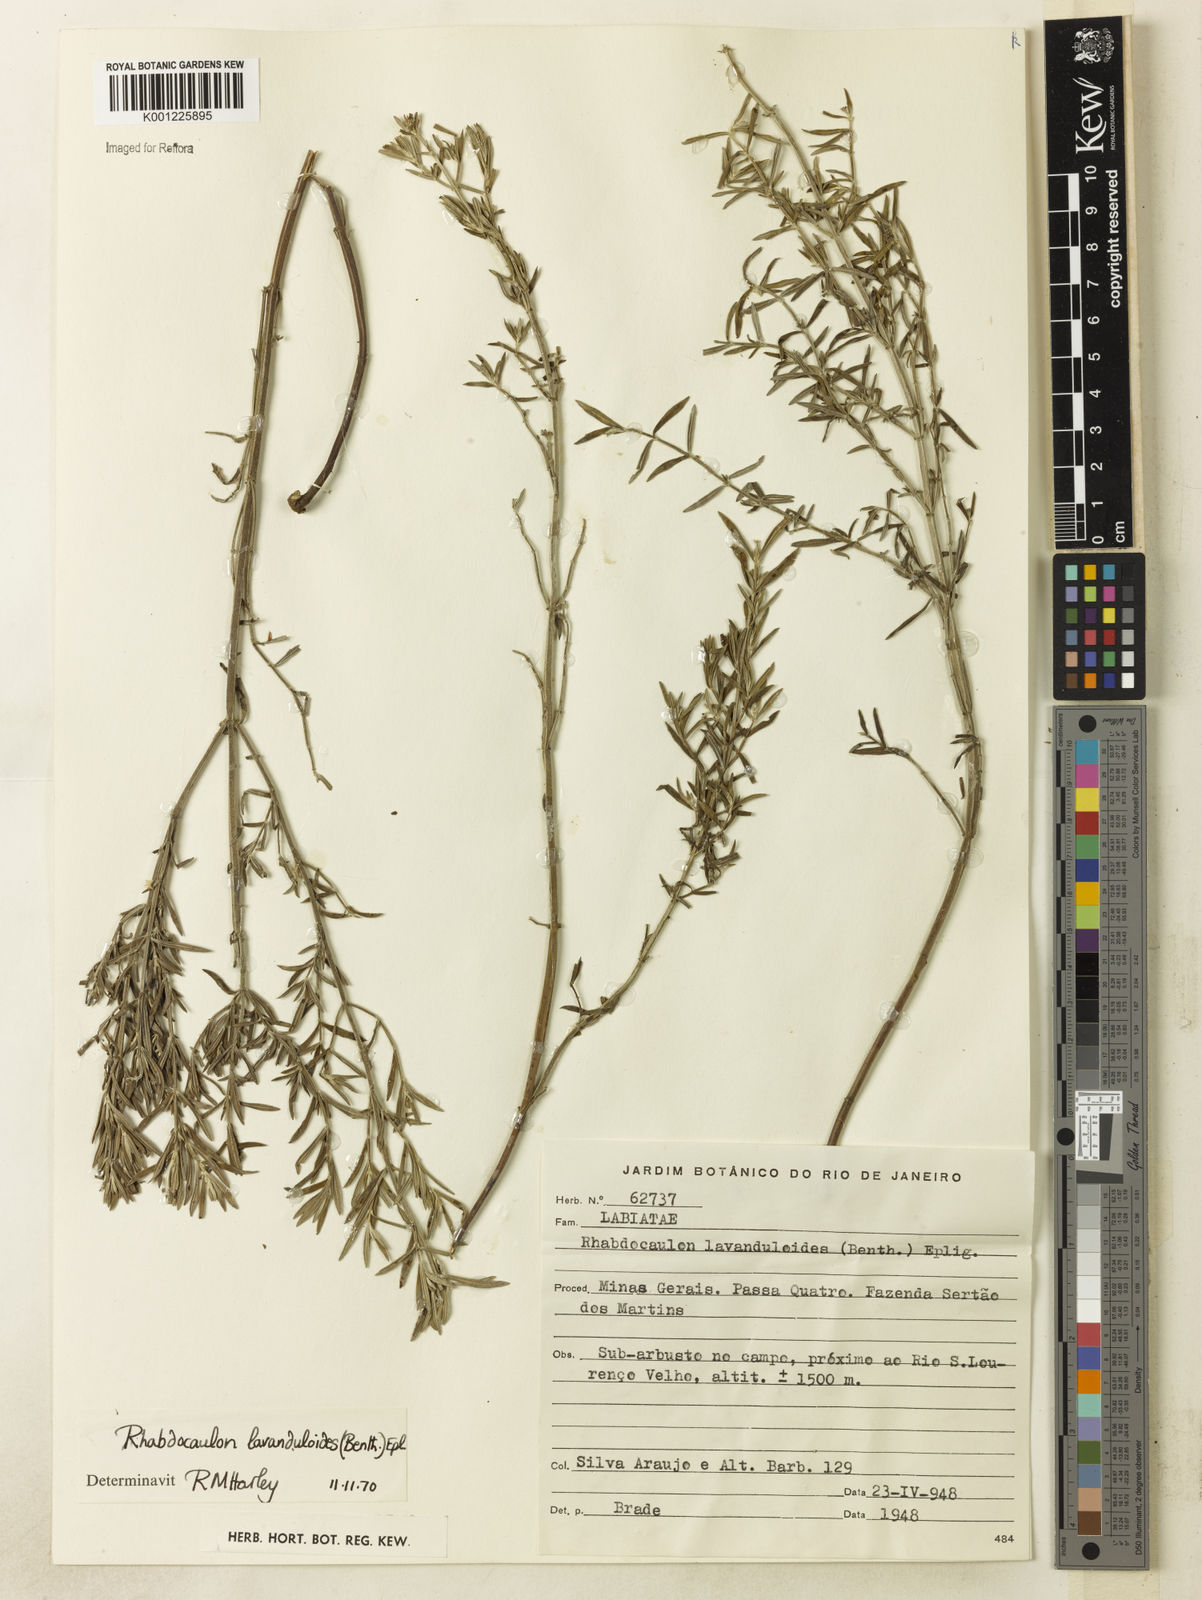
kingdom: Plantae
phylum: Tracheophyta
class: Magnoliopsida
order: Lamiales
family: Lamiaceae
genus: Rhabdocaulon
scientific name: Rhabdocaulon lavanduloides
